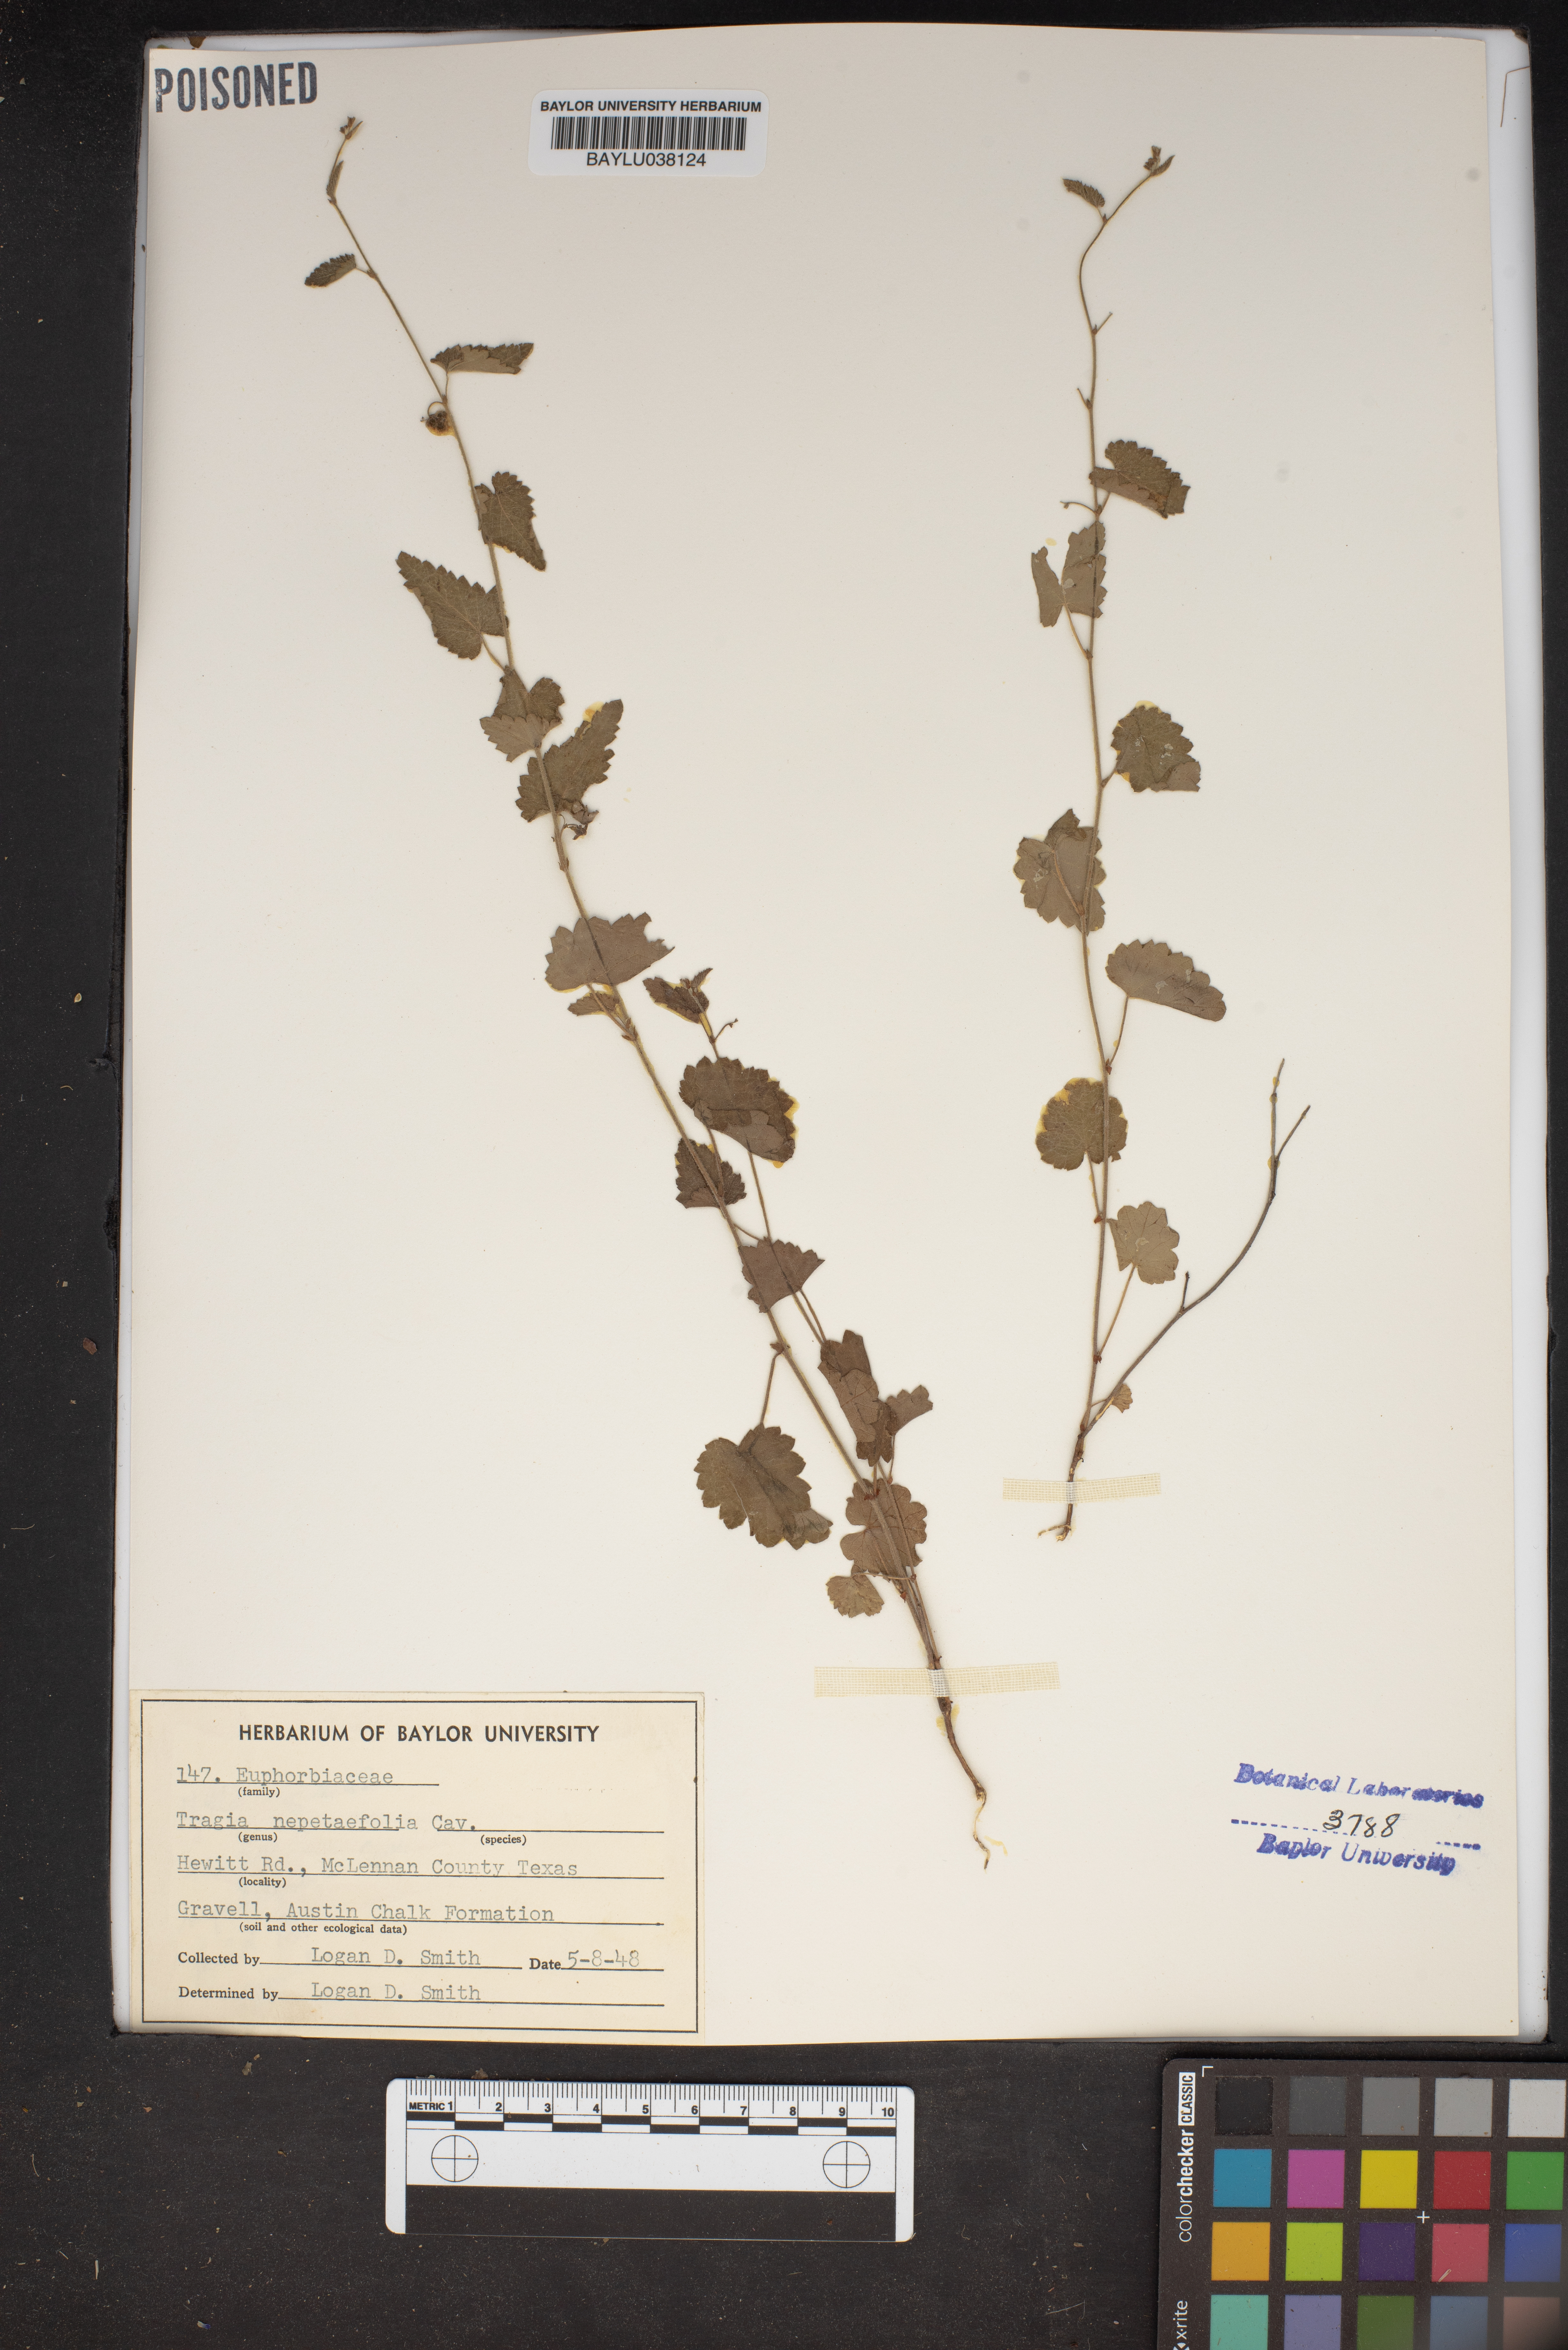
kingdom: Plantae
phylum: Tracheophyta
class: Magnoliopsida
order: Malpighiales
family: Euphorbiaceae
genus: Tragia
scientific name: Tragia bahiensis
